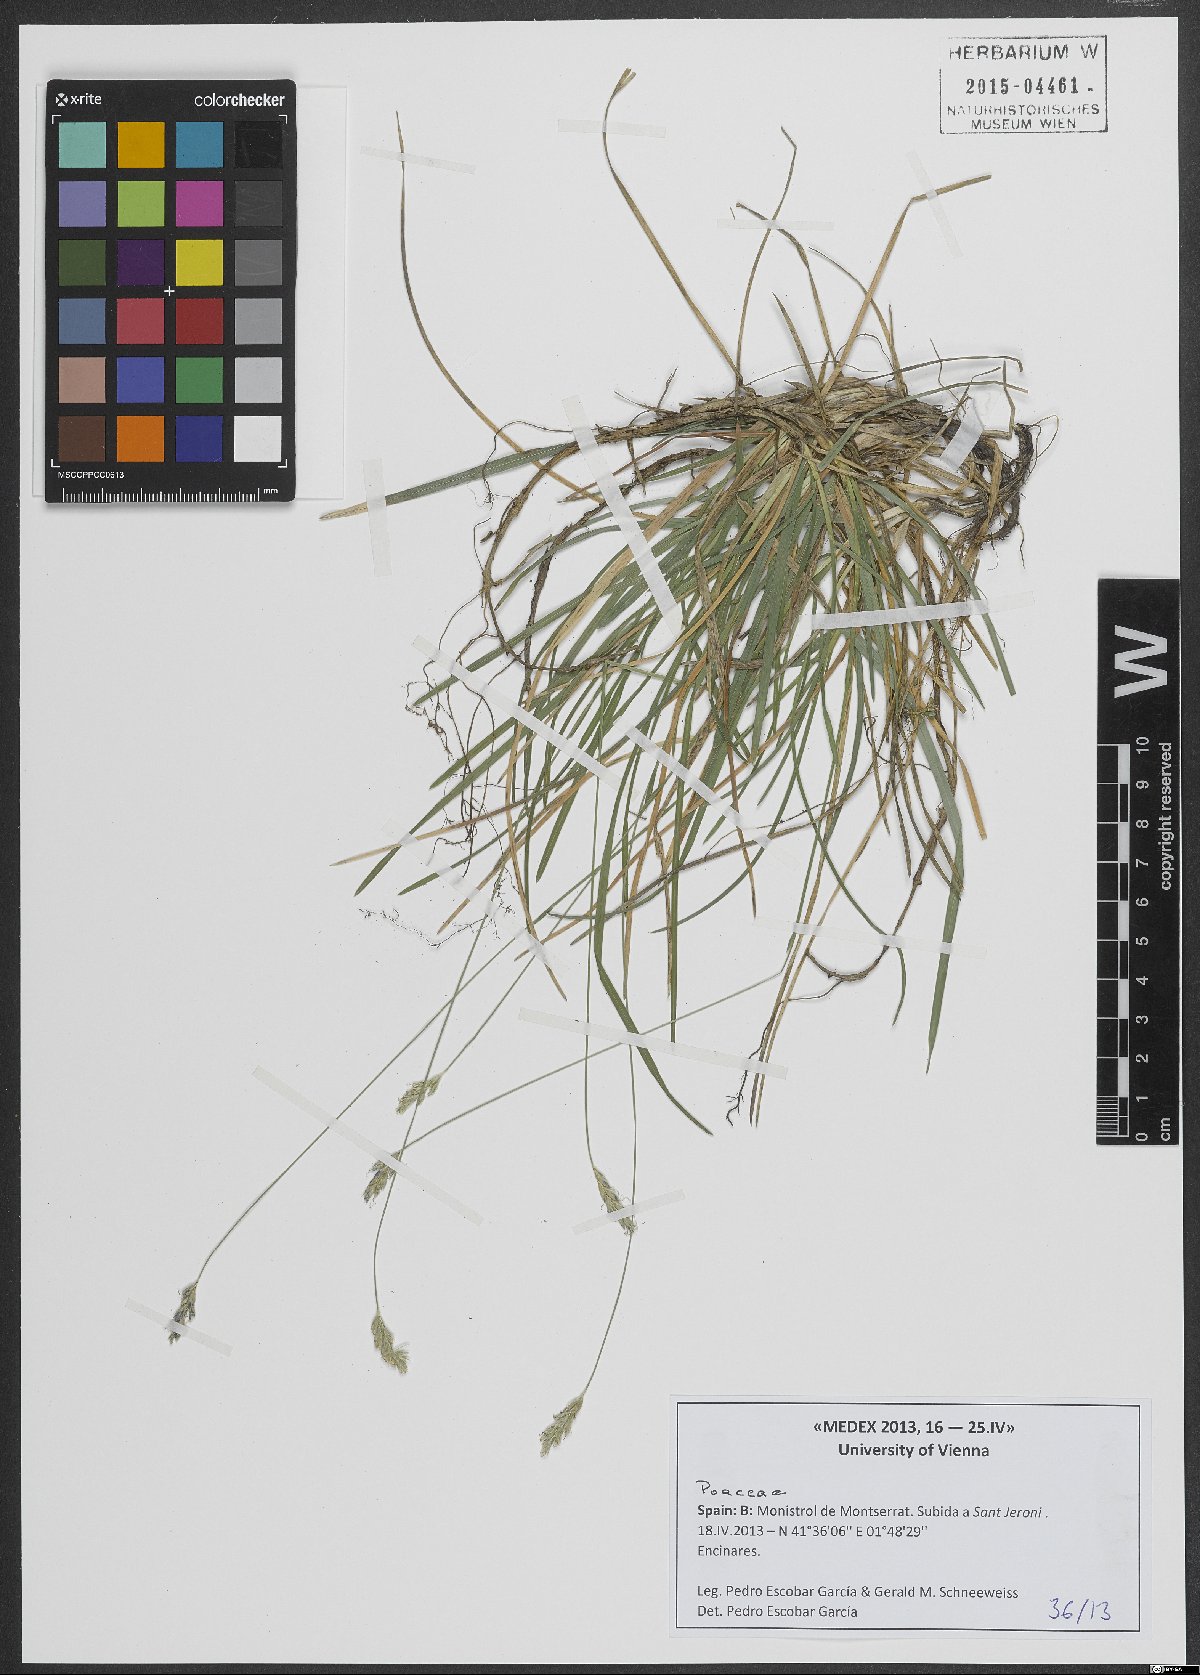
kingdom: Plantae
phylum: Tracheophyta
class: Liliopsida
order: Poales
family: Poaceae
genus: Sesleria
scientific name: Sesleria
